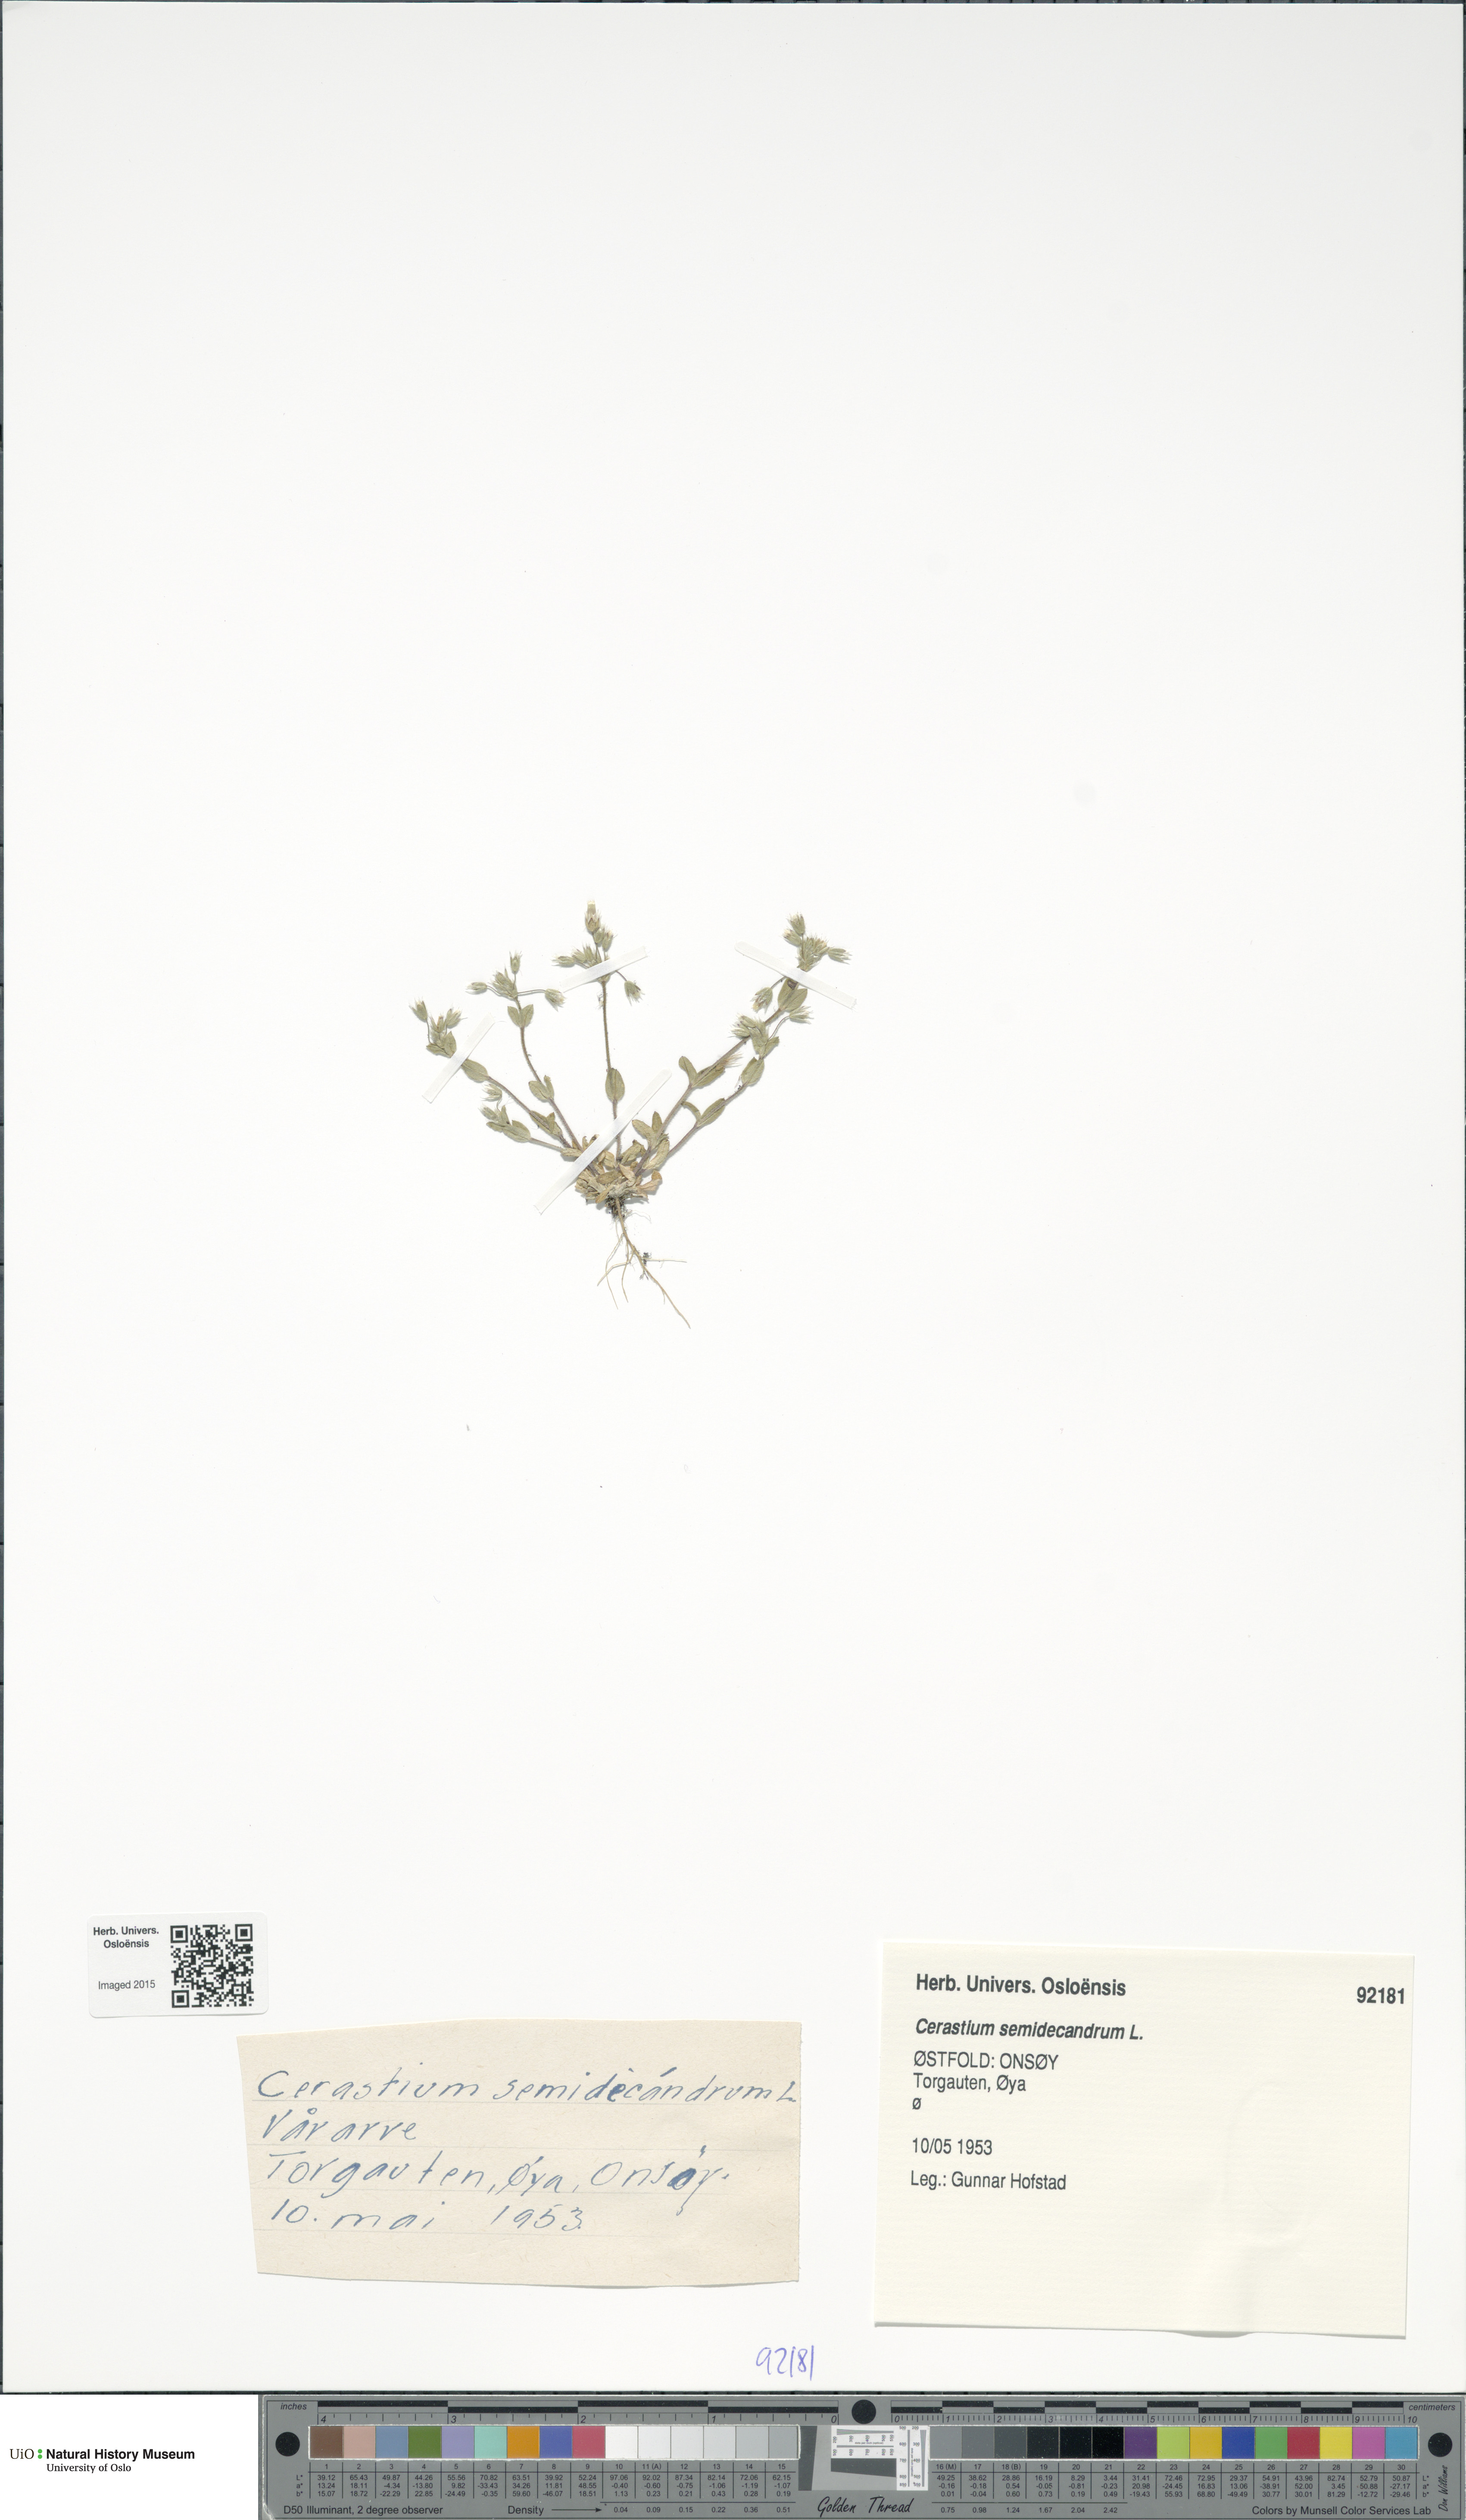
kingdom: Plantae
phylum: Tracheophyta
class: Magnoliopsida
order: Caryophyllales
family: Caryophyllaceae
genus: Cerastium
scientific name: Cerastium semidecandrum
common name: Little mouse-ear
